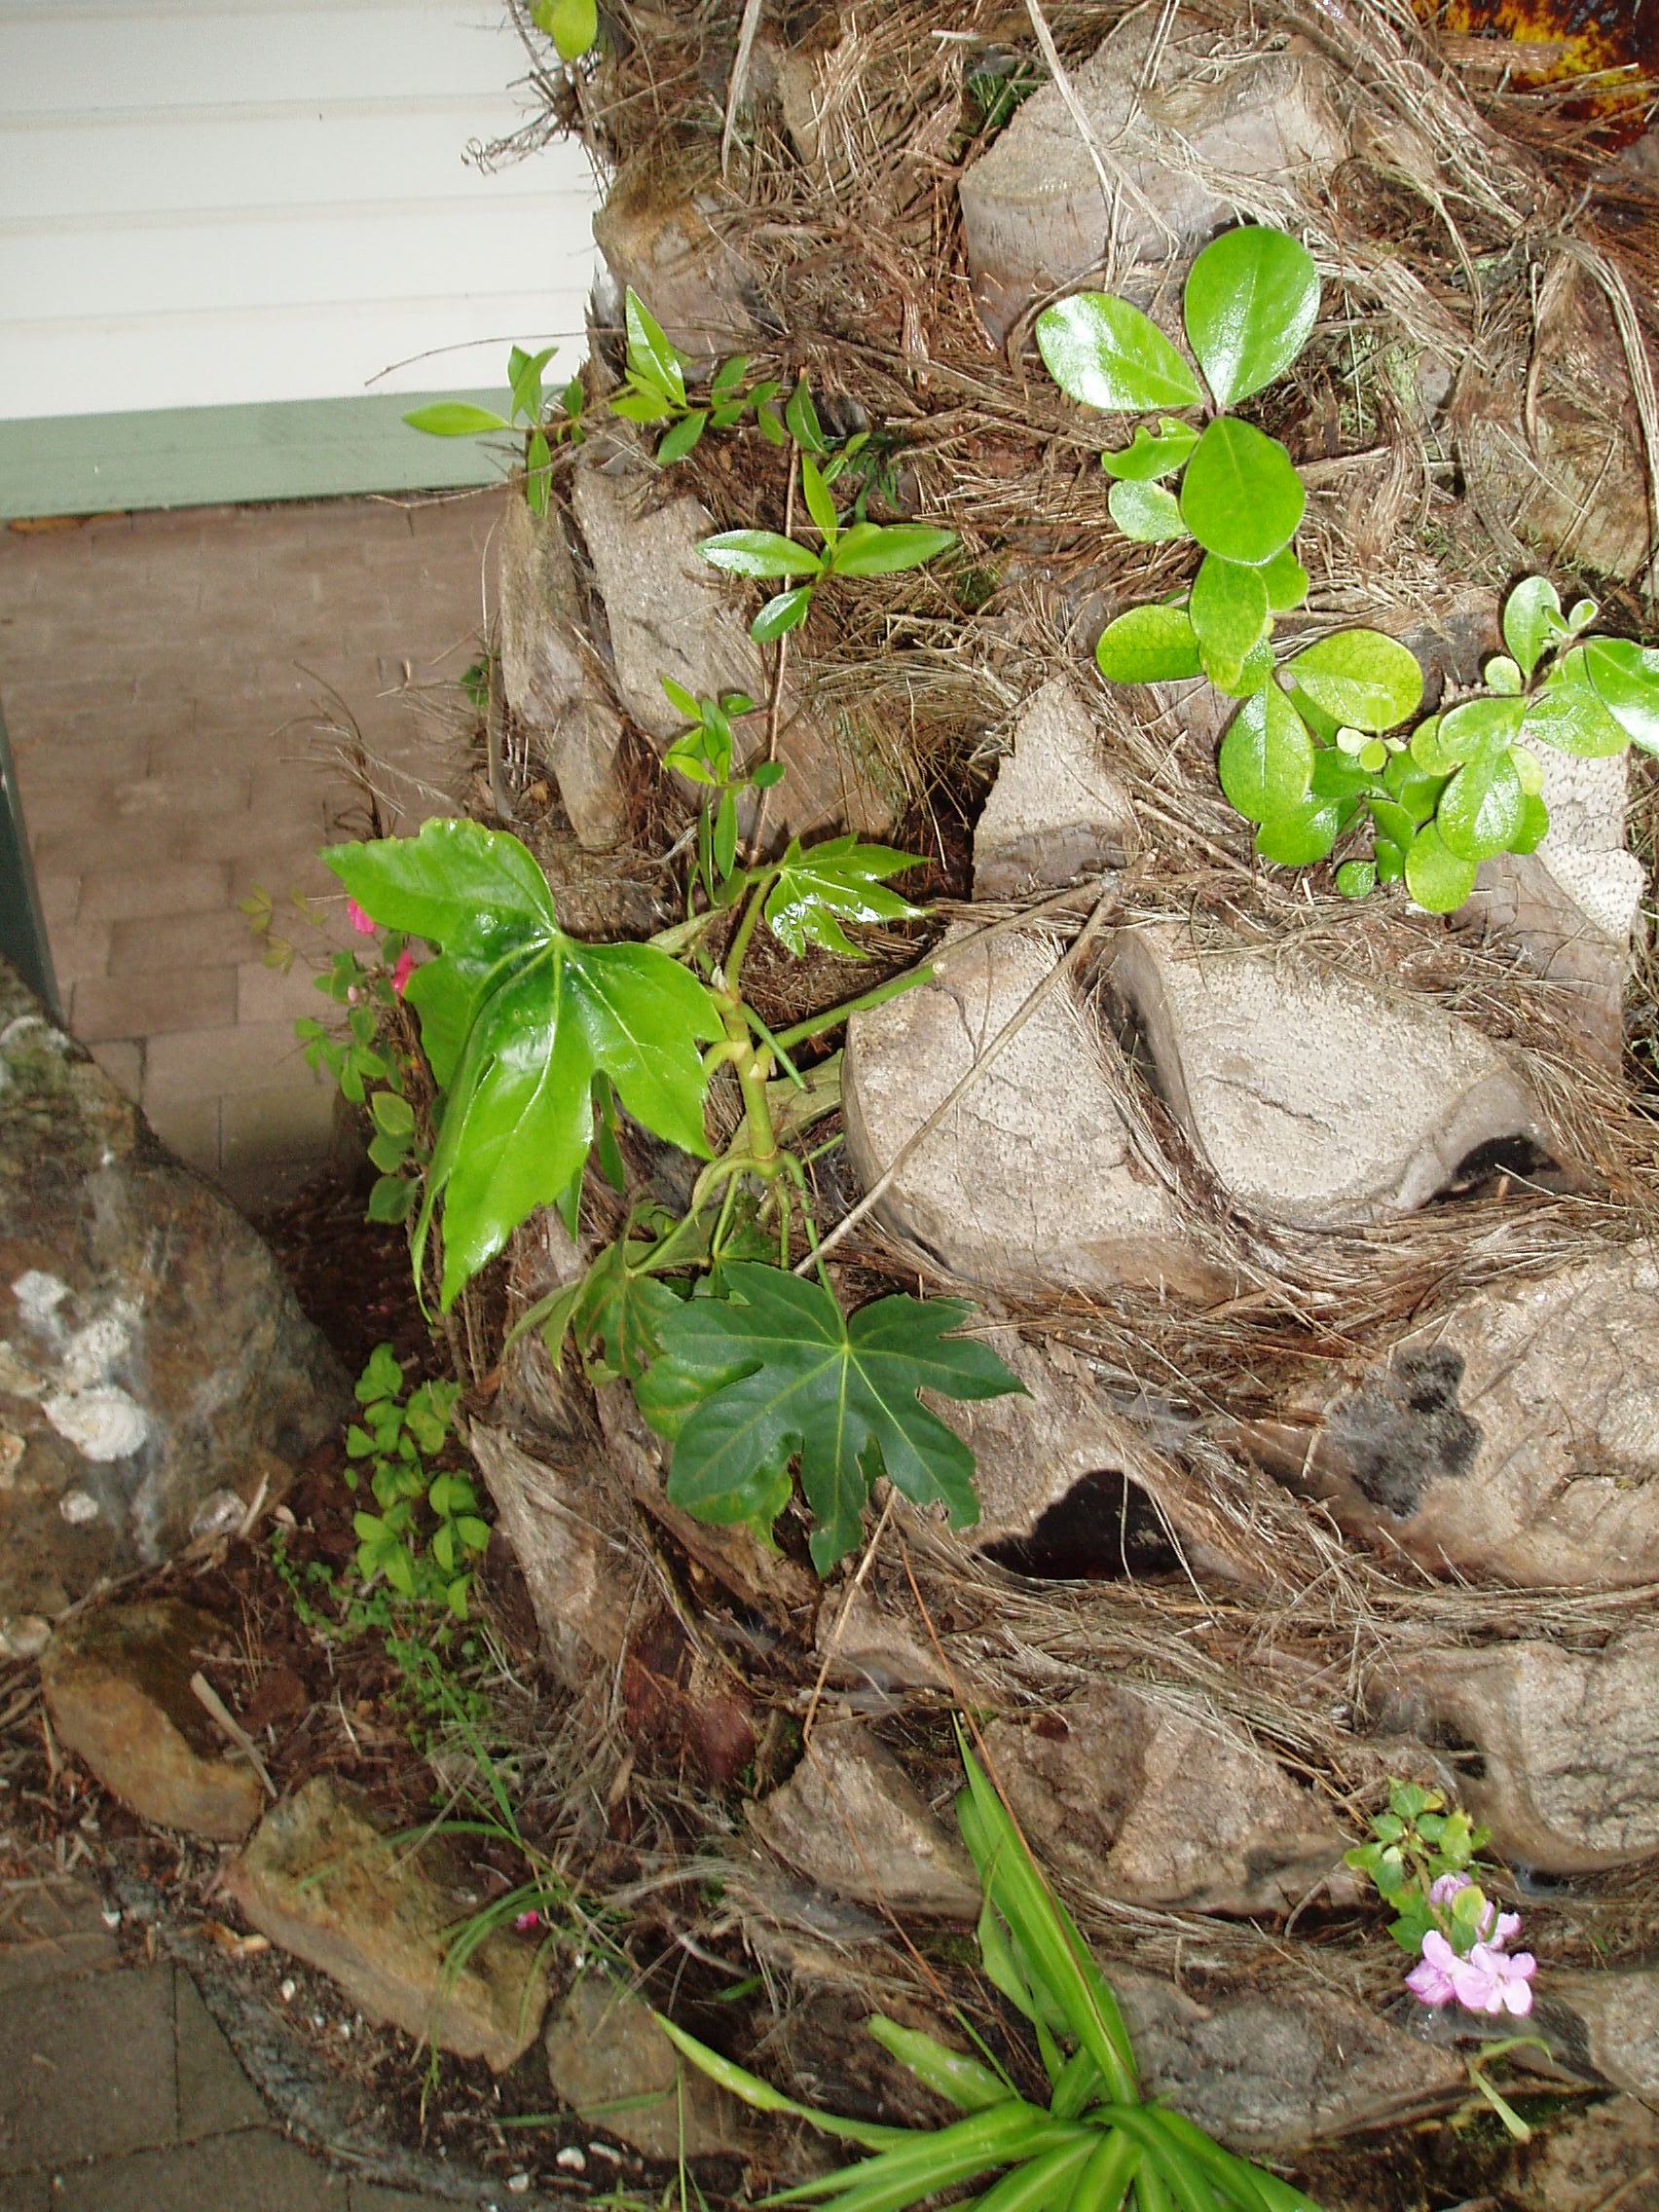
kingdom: Plantae
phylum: Tracheophyta
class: Magnoliopsida
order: Apiales
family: Araliaceae
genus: Fatsia
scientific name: Fatsia japonica
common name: Fatsia
